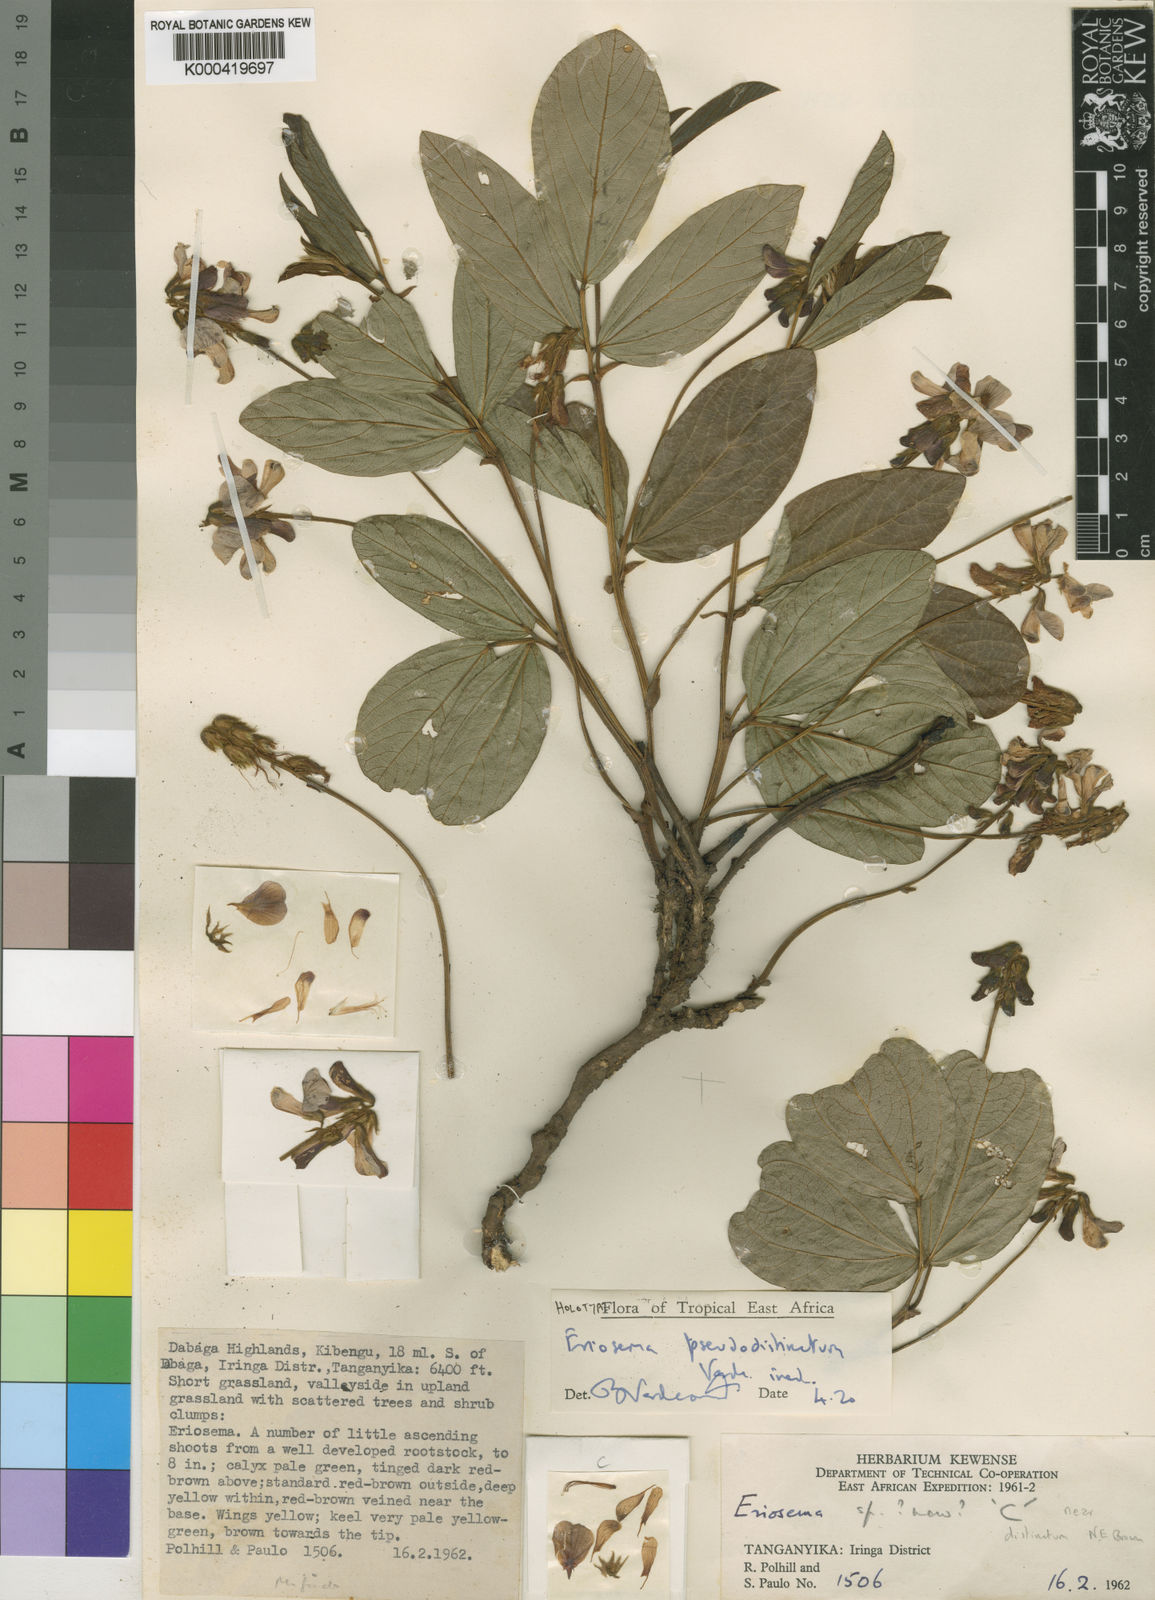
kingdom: Plantae
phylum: Tracheophyta
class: Magnoliopsida
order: Fabales
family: Fabaceae
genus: Eriosema
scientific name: Eriosema pseudodistinctum
